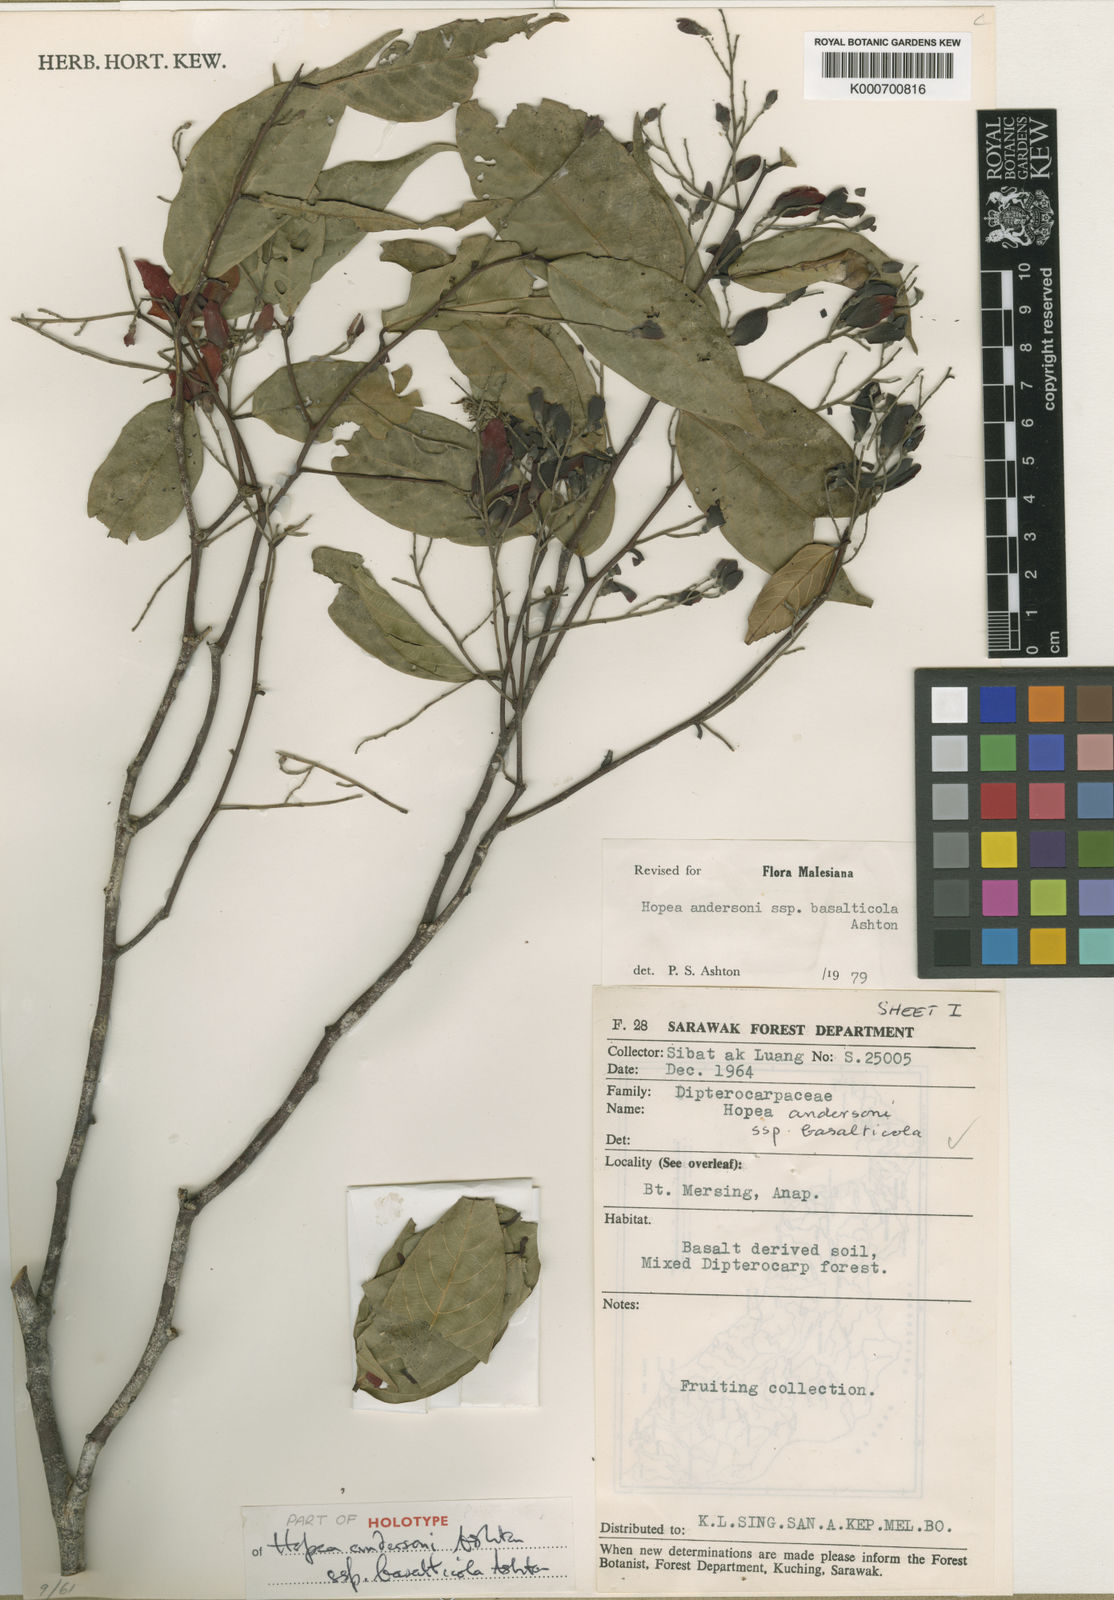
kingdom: Plantae
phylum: Tracheophyta
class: Magnoliopsida
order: Malvales
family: Dipterocarpaceae
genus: Hopea
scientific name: Hopea andersonii
